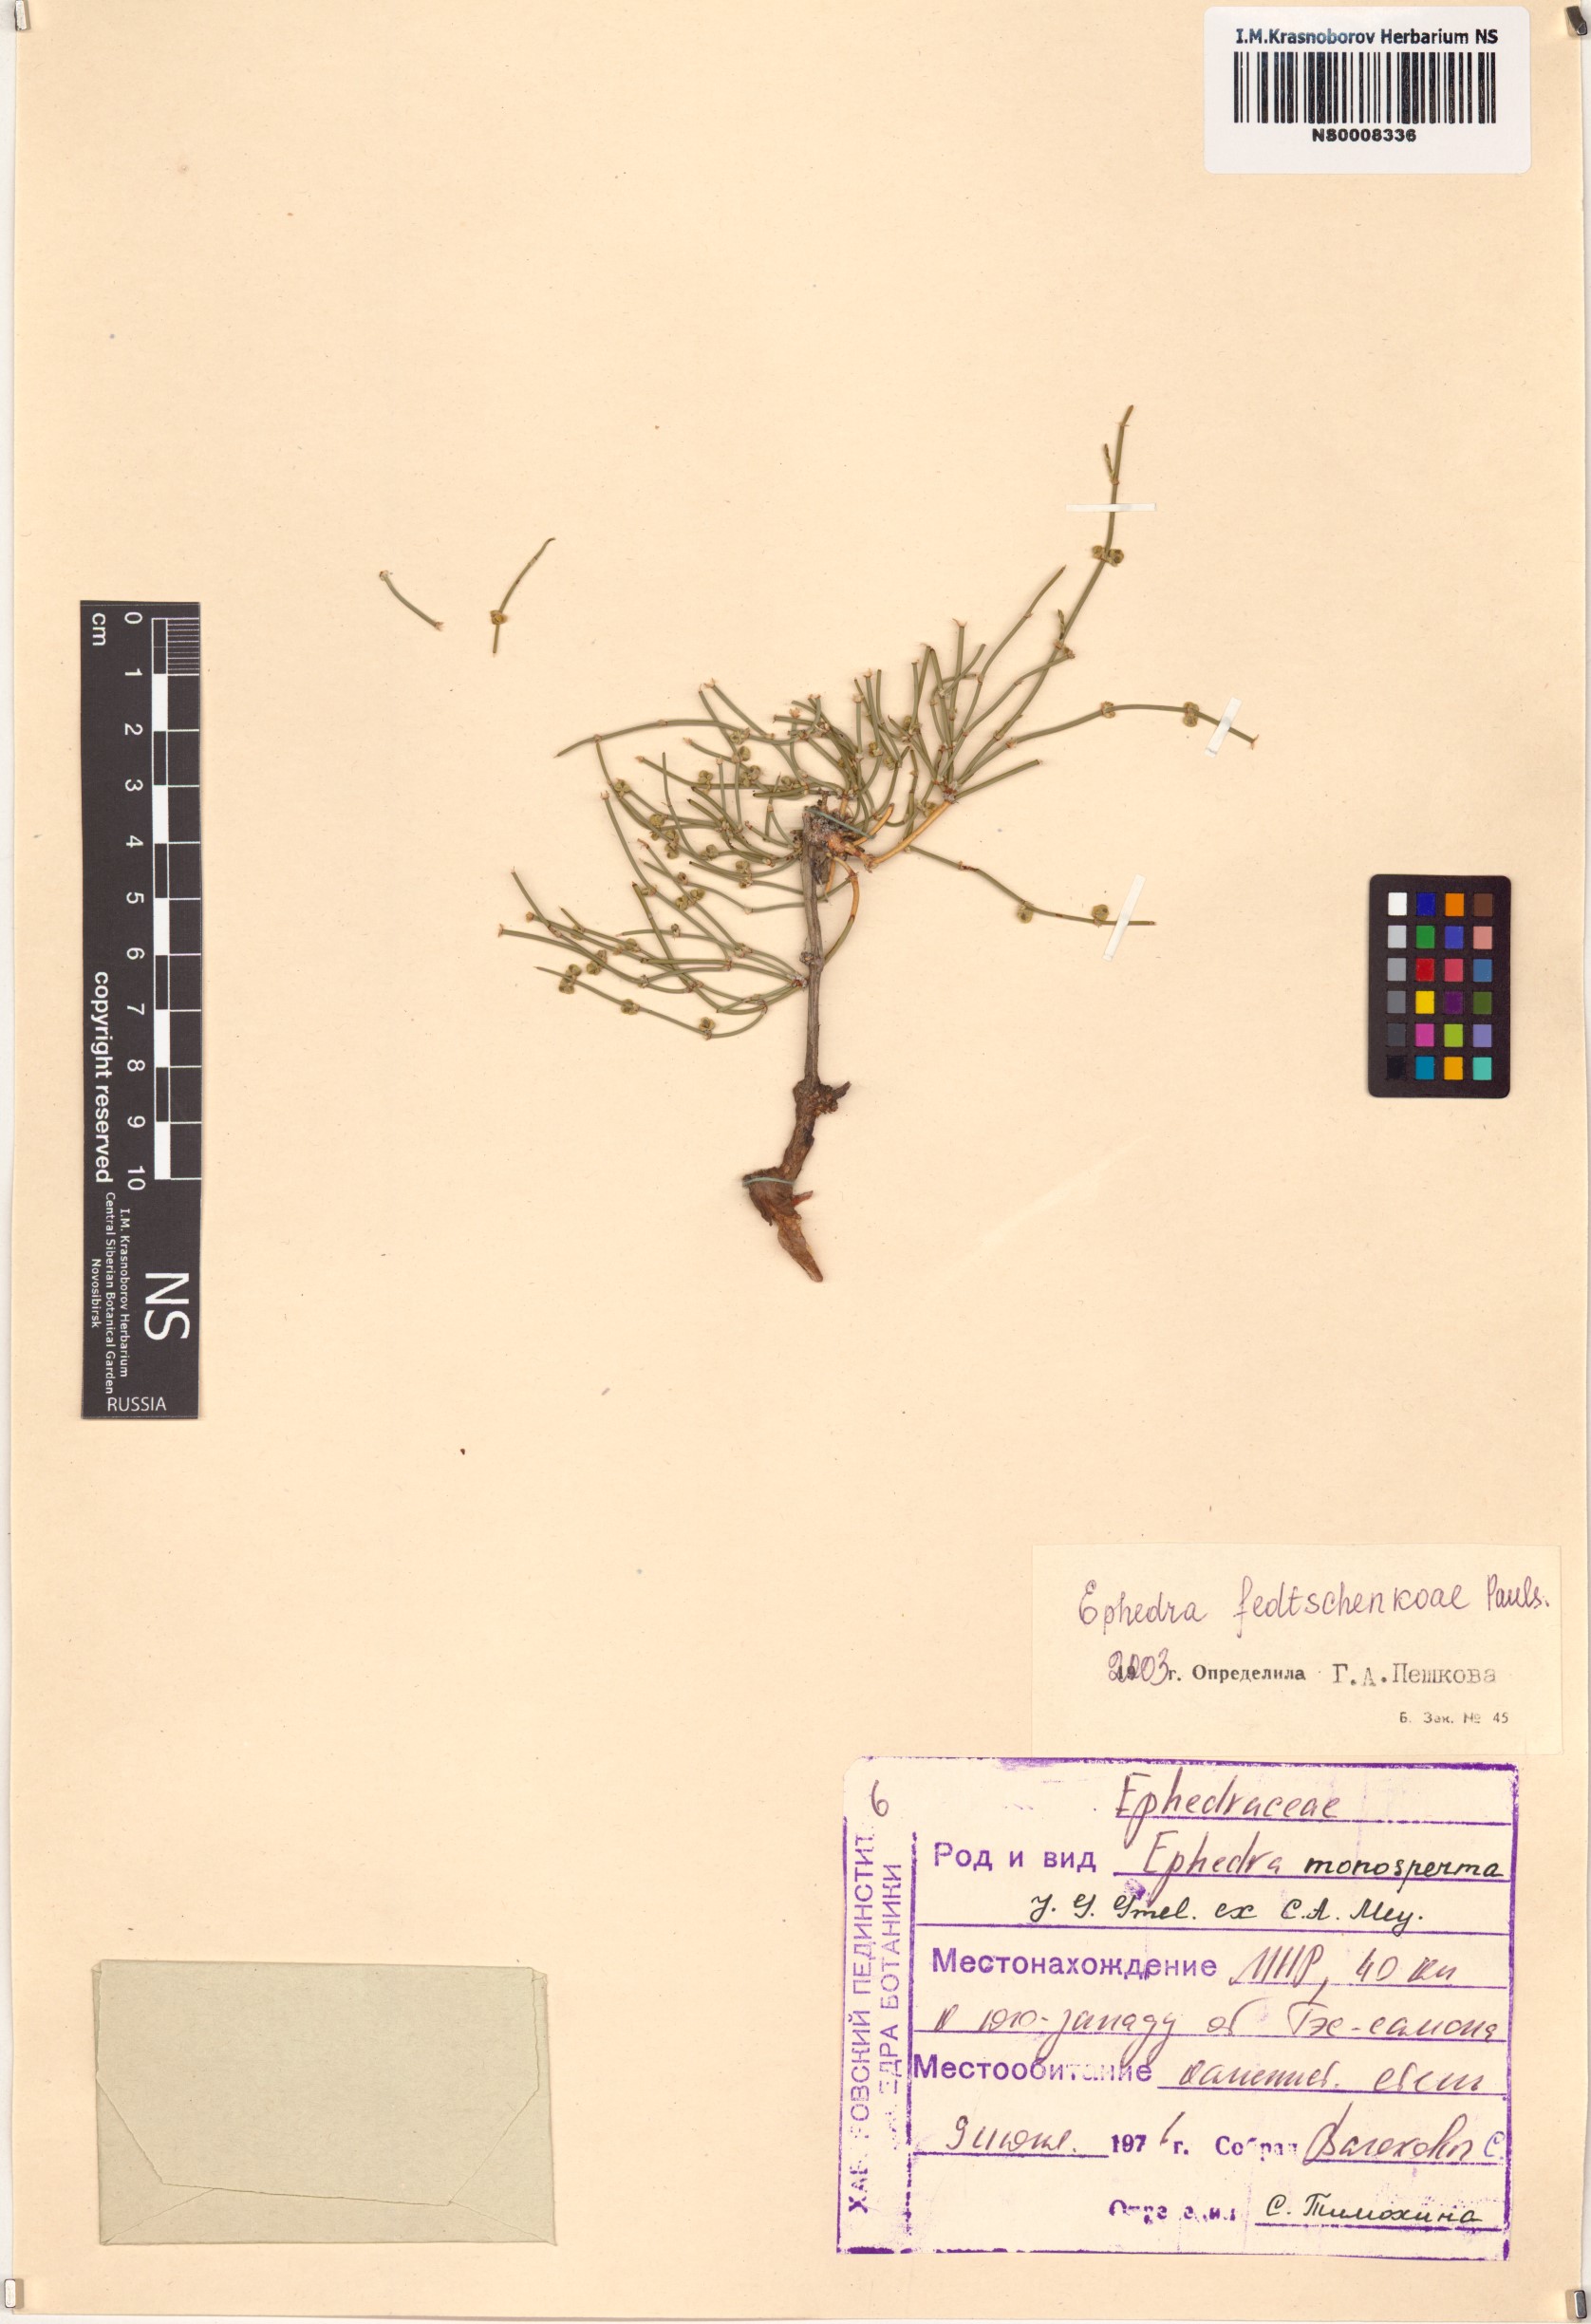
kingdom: Plantae
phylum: Tracheophyta
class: Gnetopsida
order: Ephedrales
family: Ephedraceae
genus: Ephedra
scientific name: Ephedra fedtschenkoae
